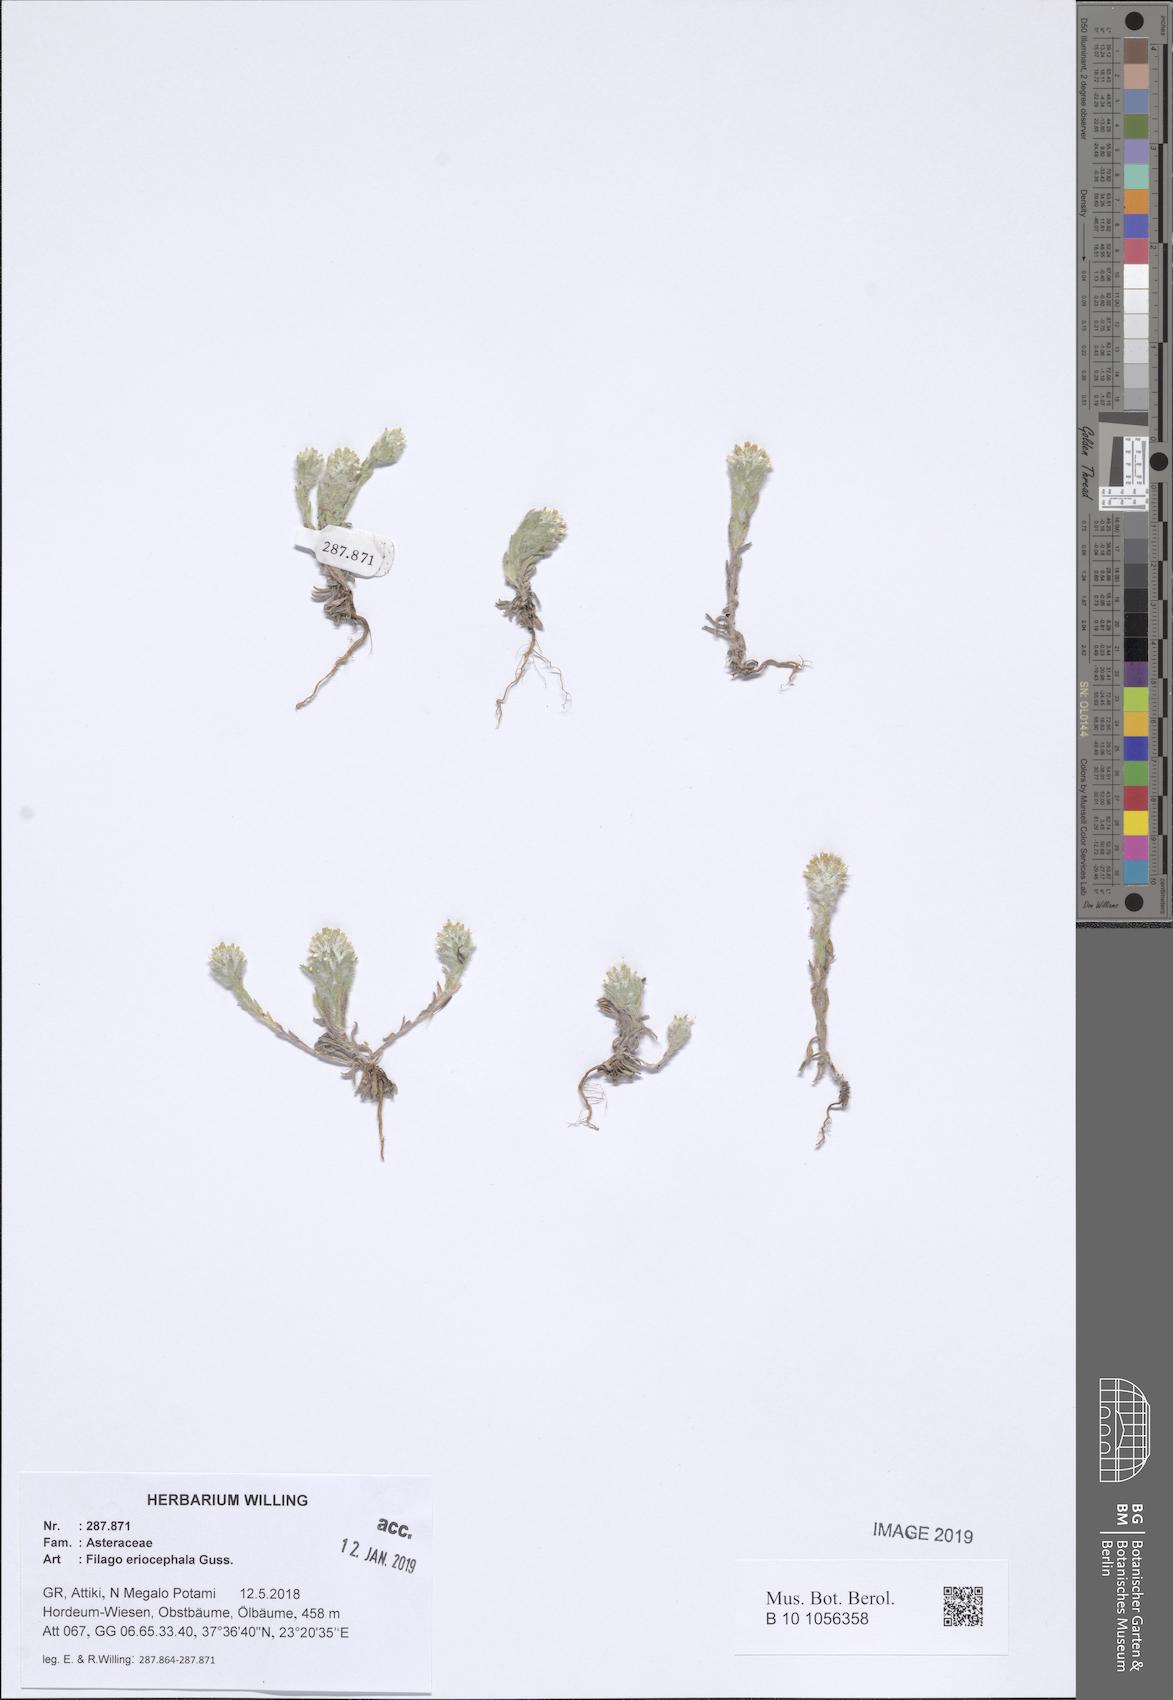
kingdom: Plantae
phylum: Tracheophyta
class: Magnoliopsida
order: Asterales
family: Asteraceae
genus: Filago
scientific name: Filago eriocephala
